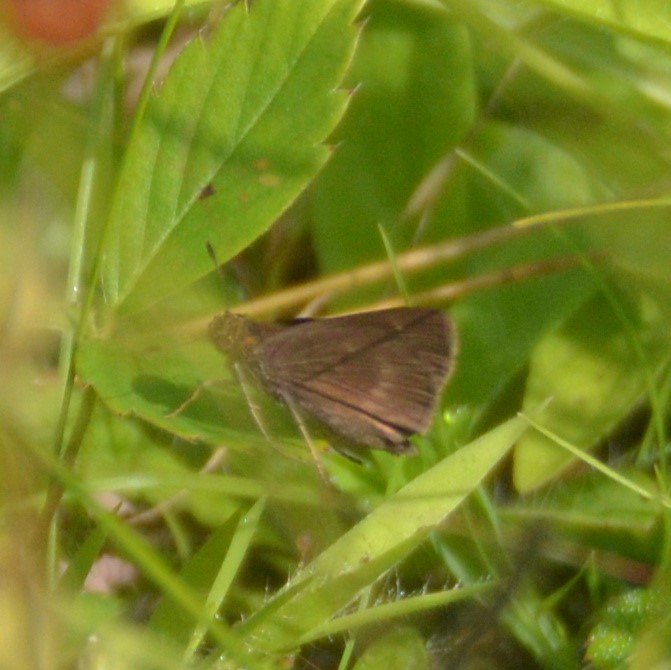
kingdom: Animalia
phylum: Arthropoda
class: Insecta
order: Lepidoptera
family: Hesperiidae
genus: Euphyes
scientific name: Euphyes vestris
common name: Dun Skipper
